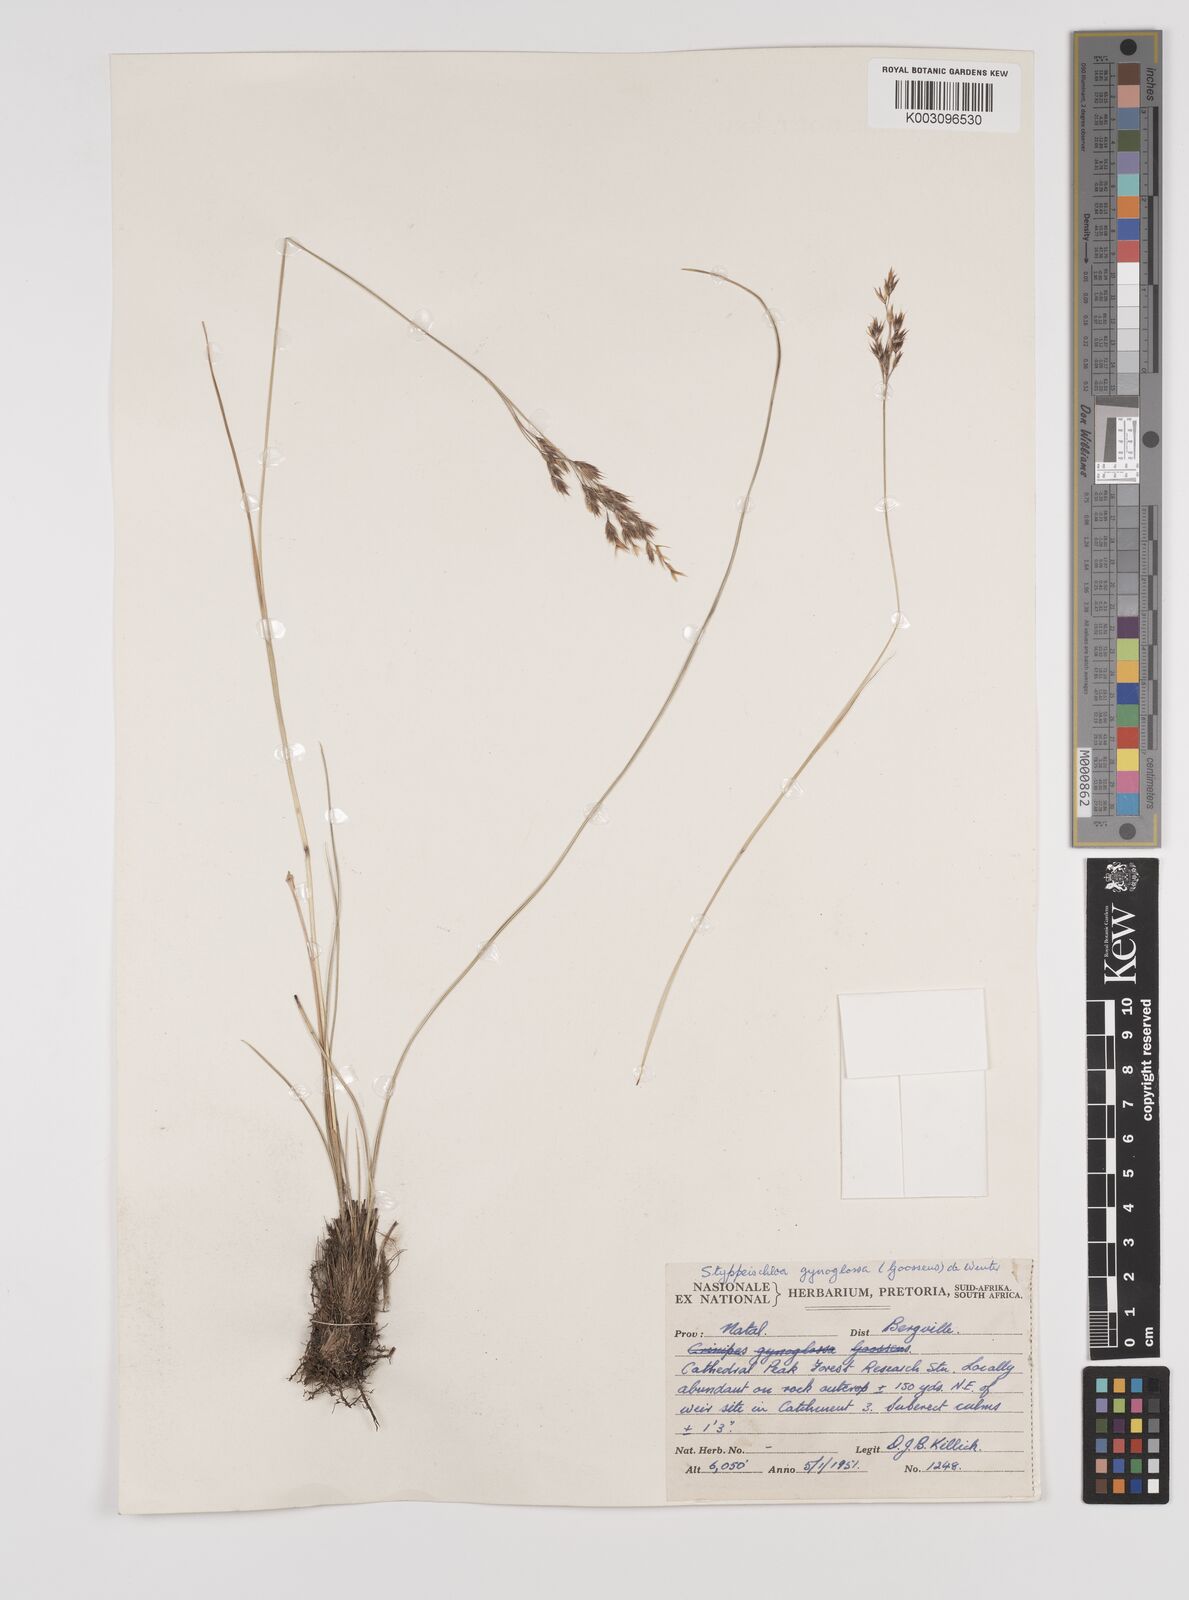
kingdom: Plantae
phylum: Tracheophyta
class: Liliopsida
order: Poales
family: Poaceae
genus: Styppeiochloa
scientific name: Styppeiochloa gynoglossa
